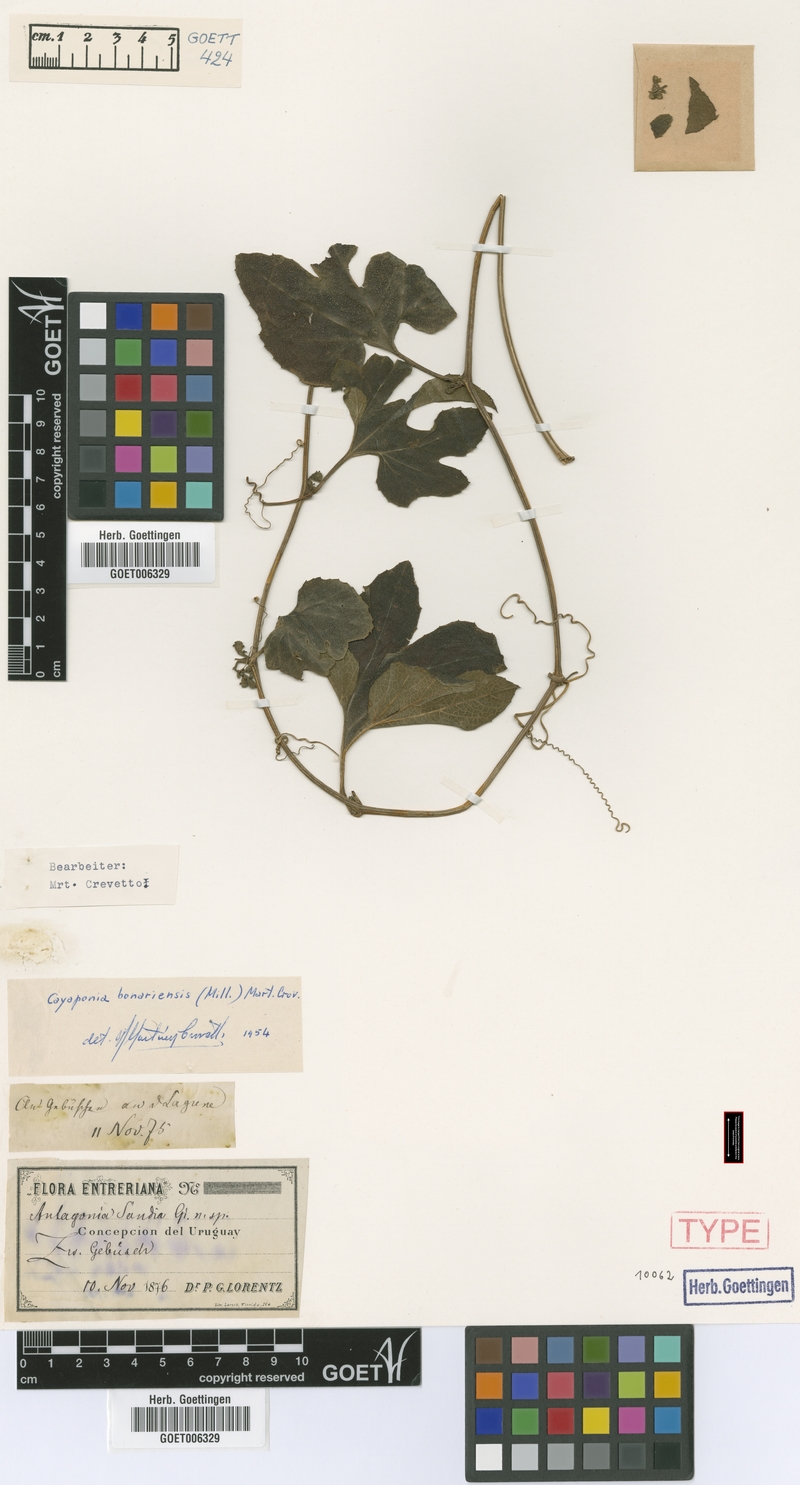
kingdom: Plantae
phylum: Tracheophyta
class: Magnoliopsida
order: Cucurbitales
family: Cucurbitaceae
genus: Cayaponia
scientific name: Cayaponia bonariensis
